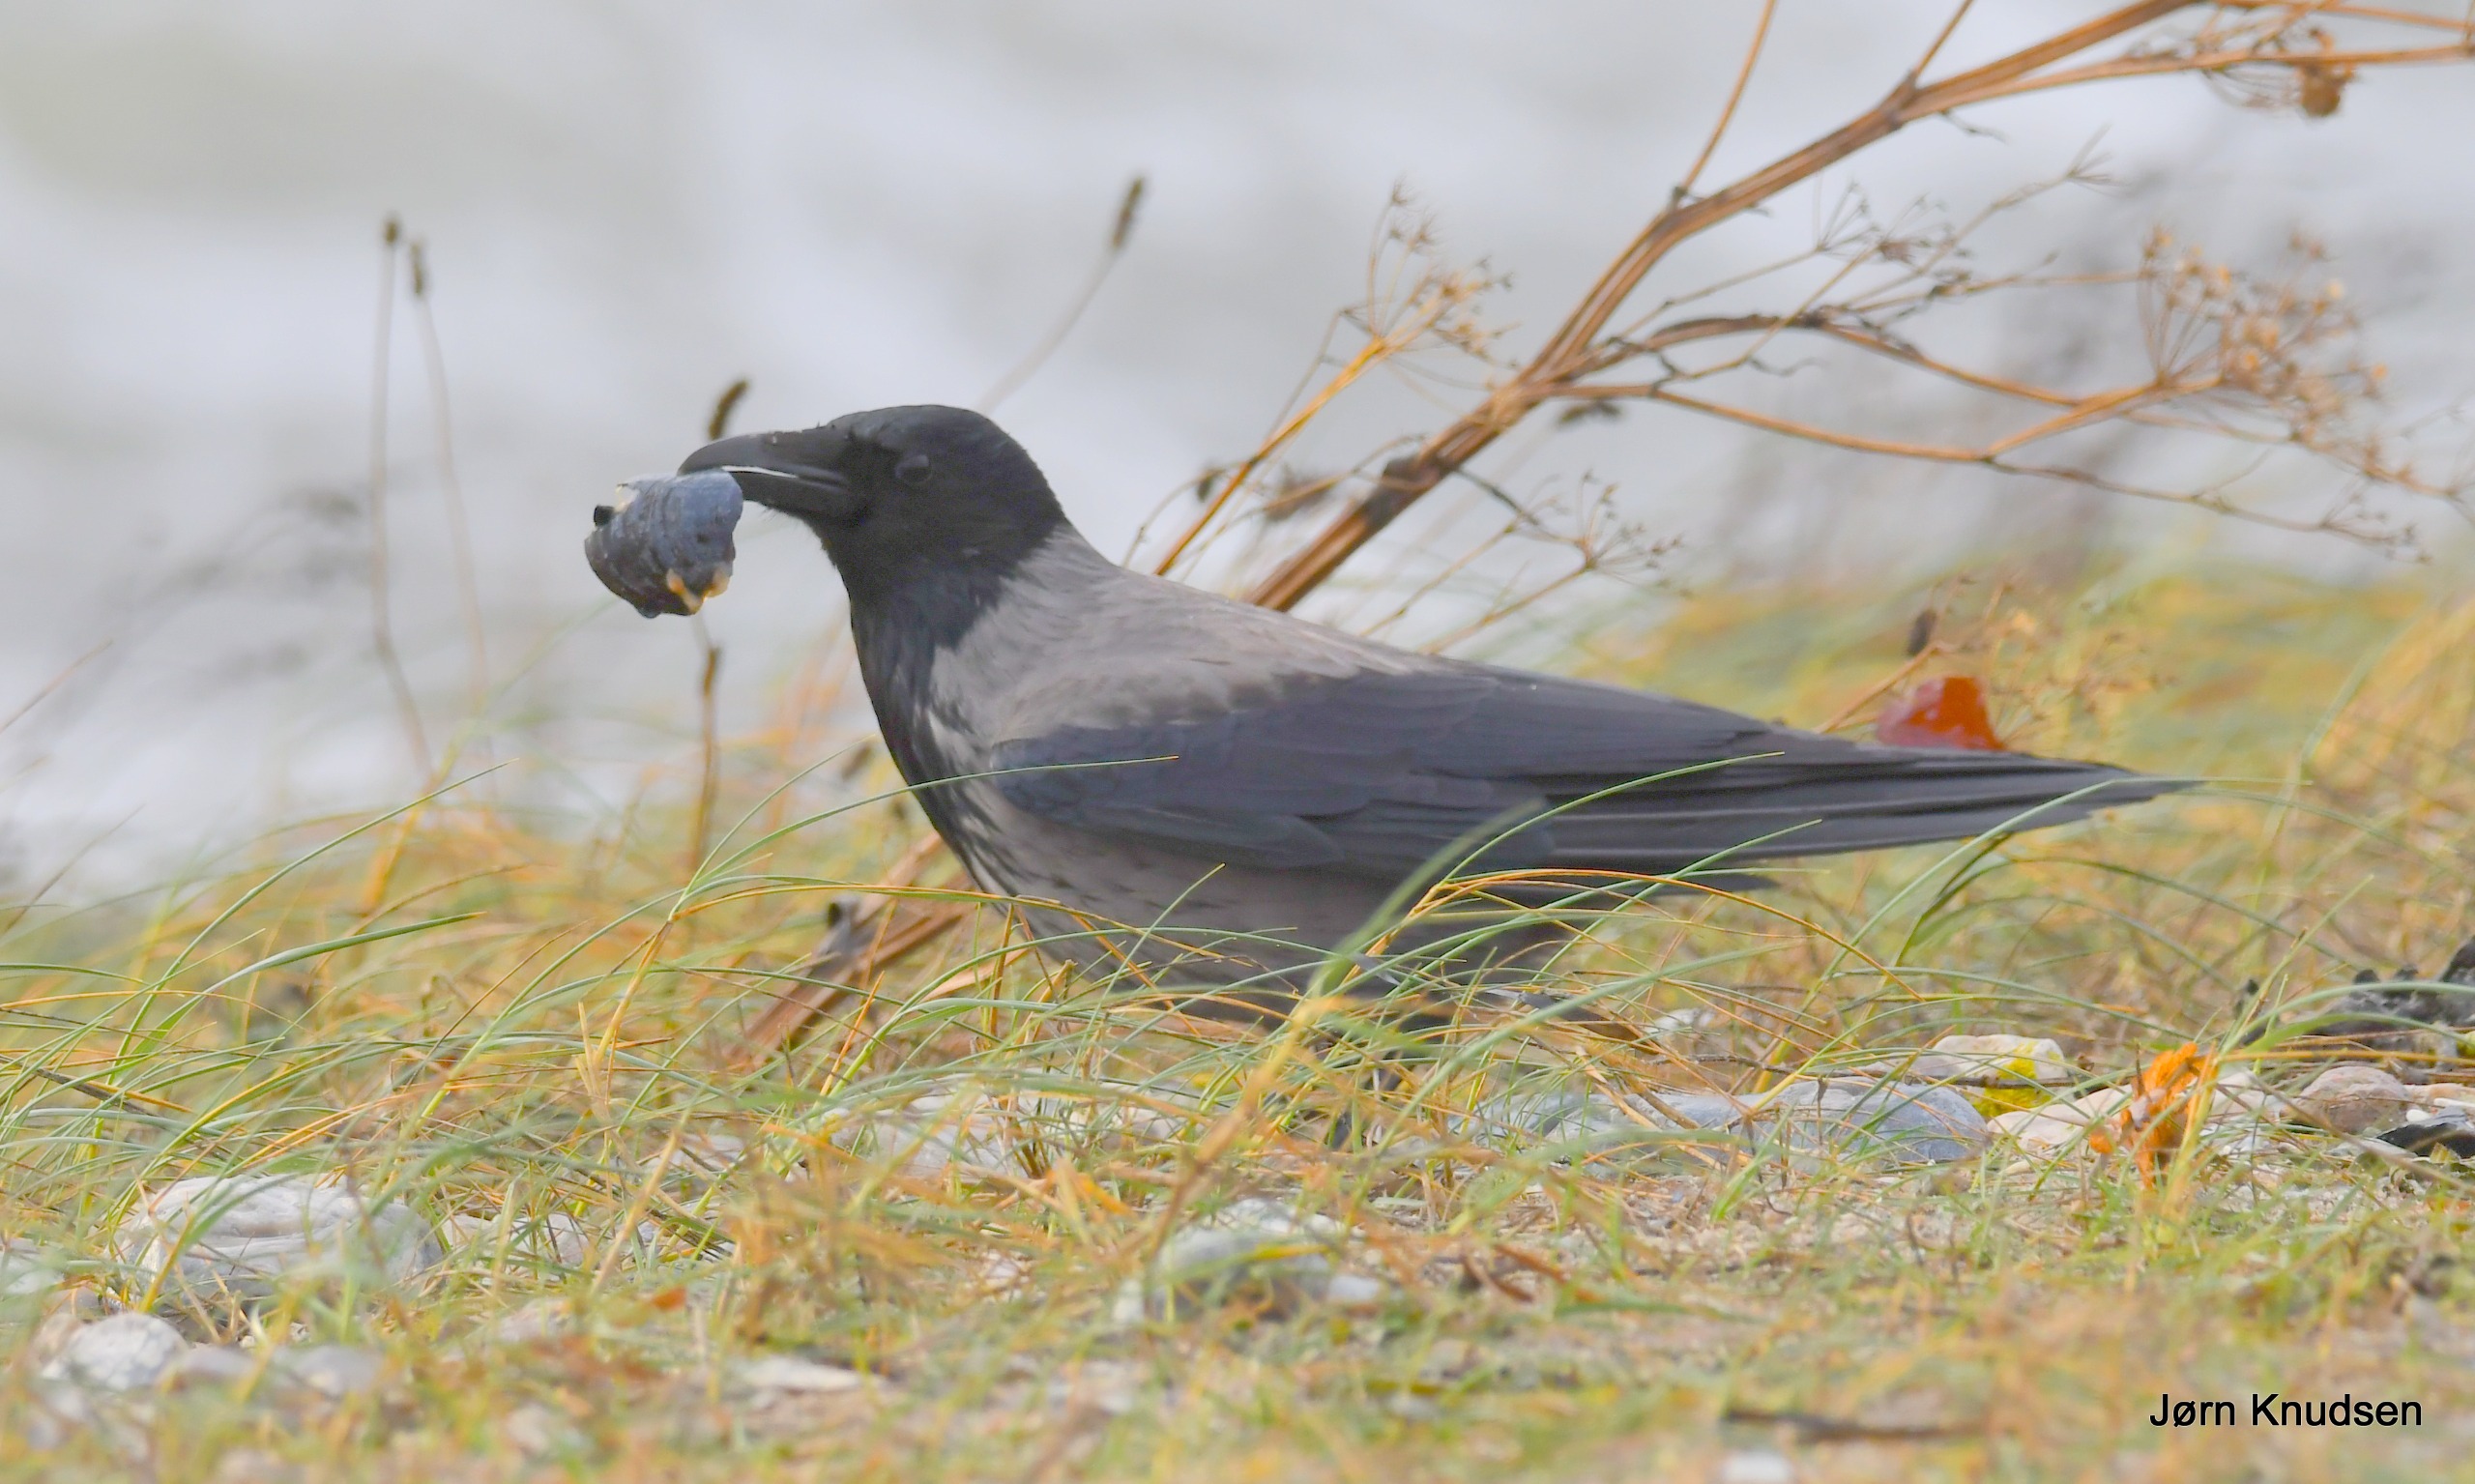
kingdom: Animalia
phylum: Chordata
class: Aves
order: Passeriformes
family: Corvidae
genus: Corvus
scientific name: Corvus cornix
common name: Gråkrage
